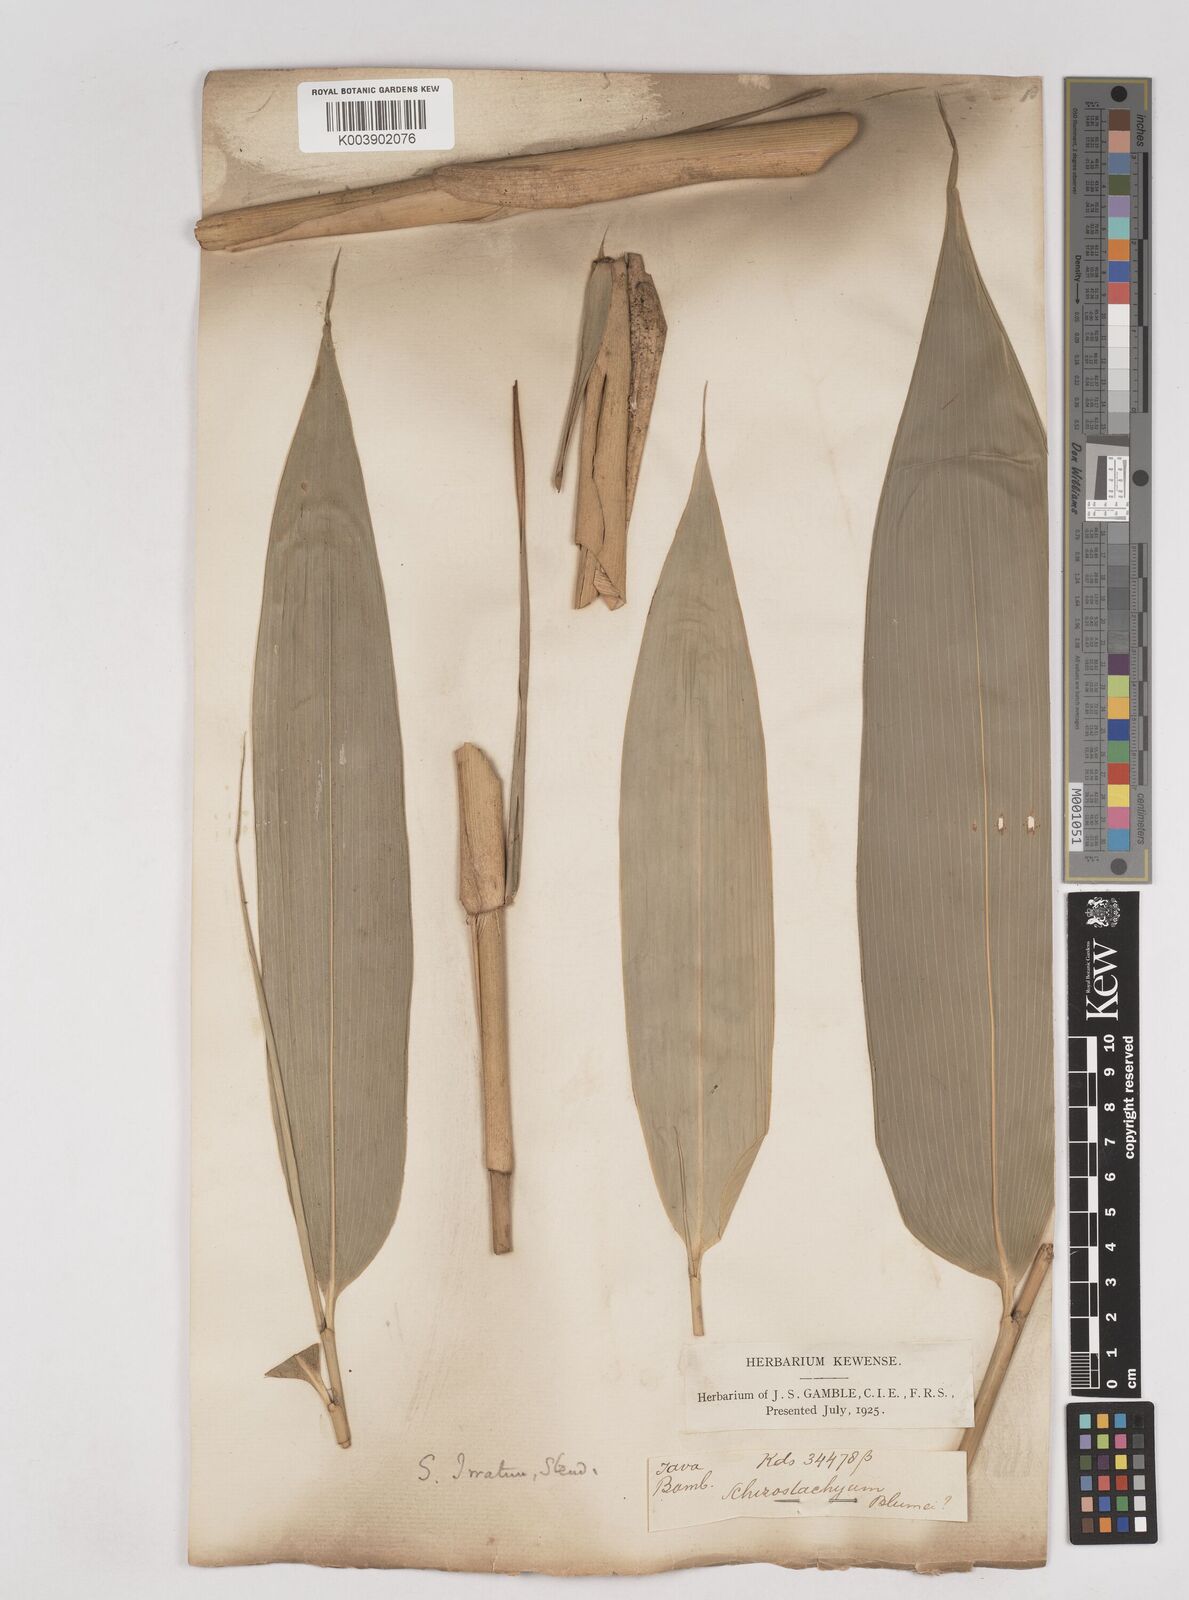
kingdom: Plantae
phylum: Tracheophyta
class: Liliopsida
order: Poales
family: Poaceae
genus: Schizostachyum
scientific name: Schizostachyum iraten
